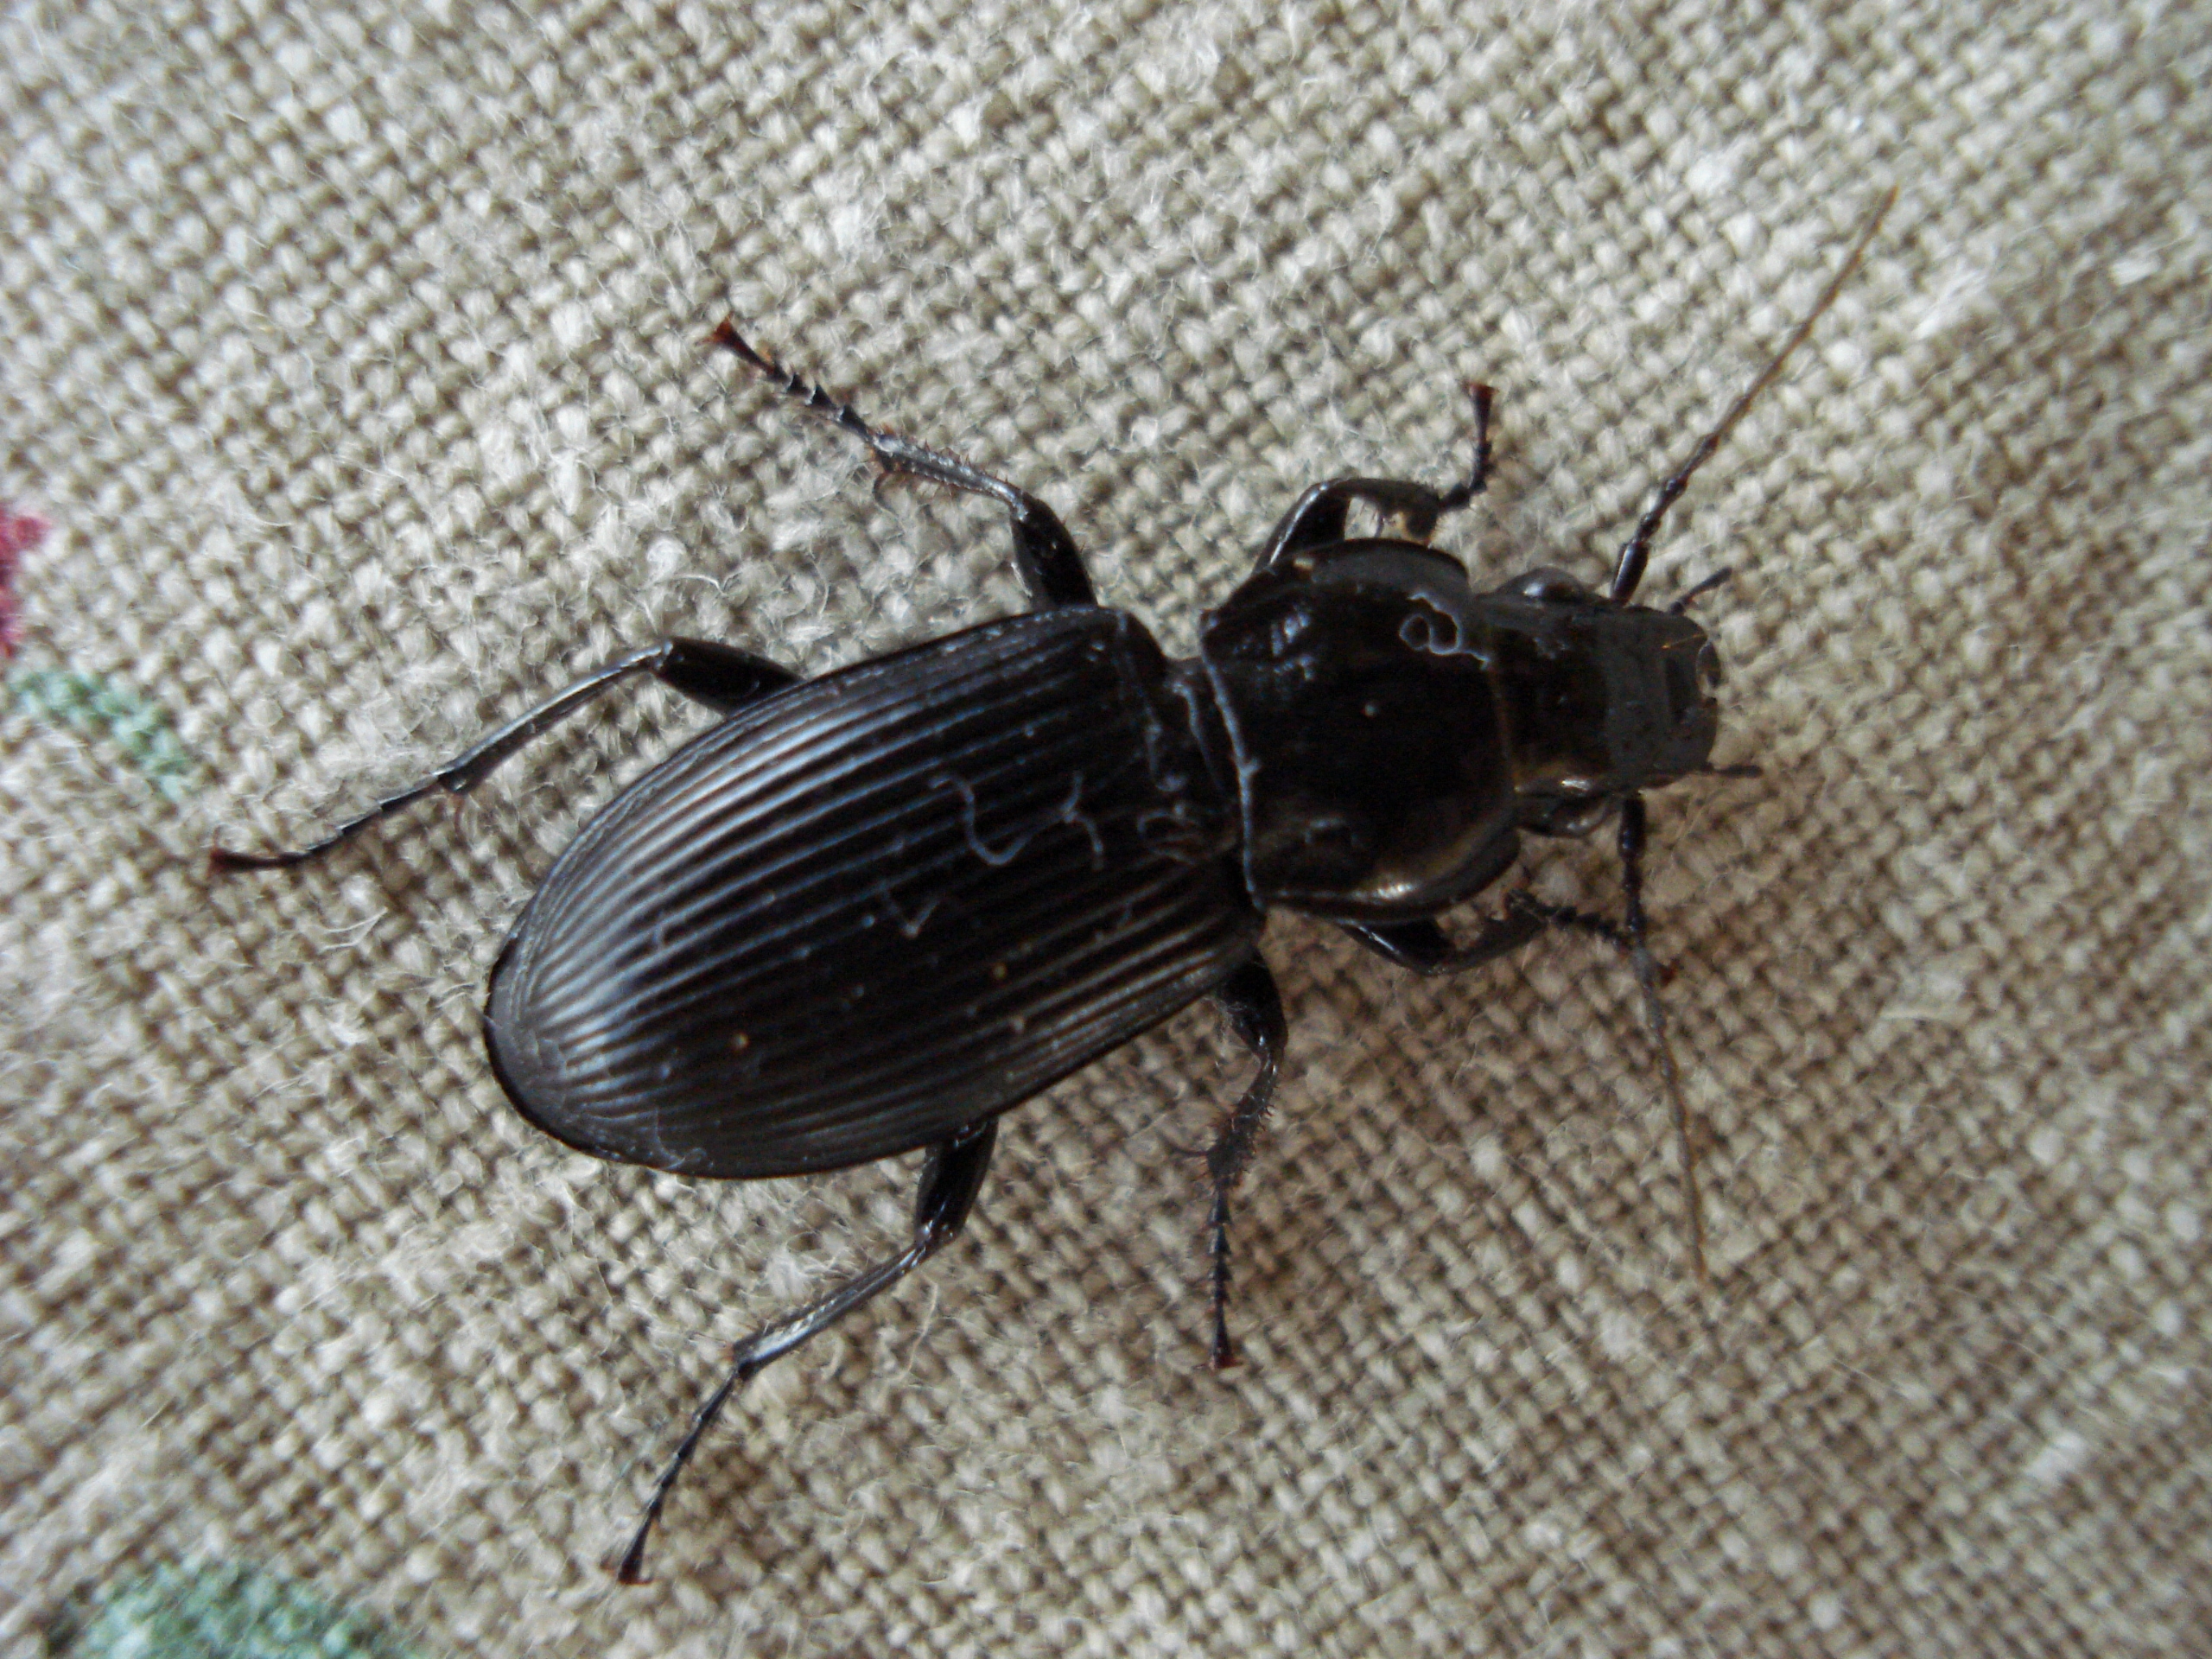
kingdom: Animalia
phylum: Arthropoda
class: Insecta
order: Coleoptera
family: Carabidae
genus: Pterostichus
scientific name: Pterostichus melanarius
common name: Markjordløber
